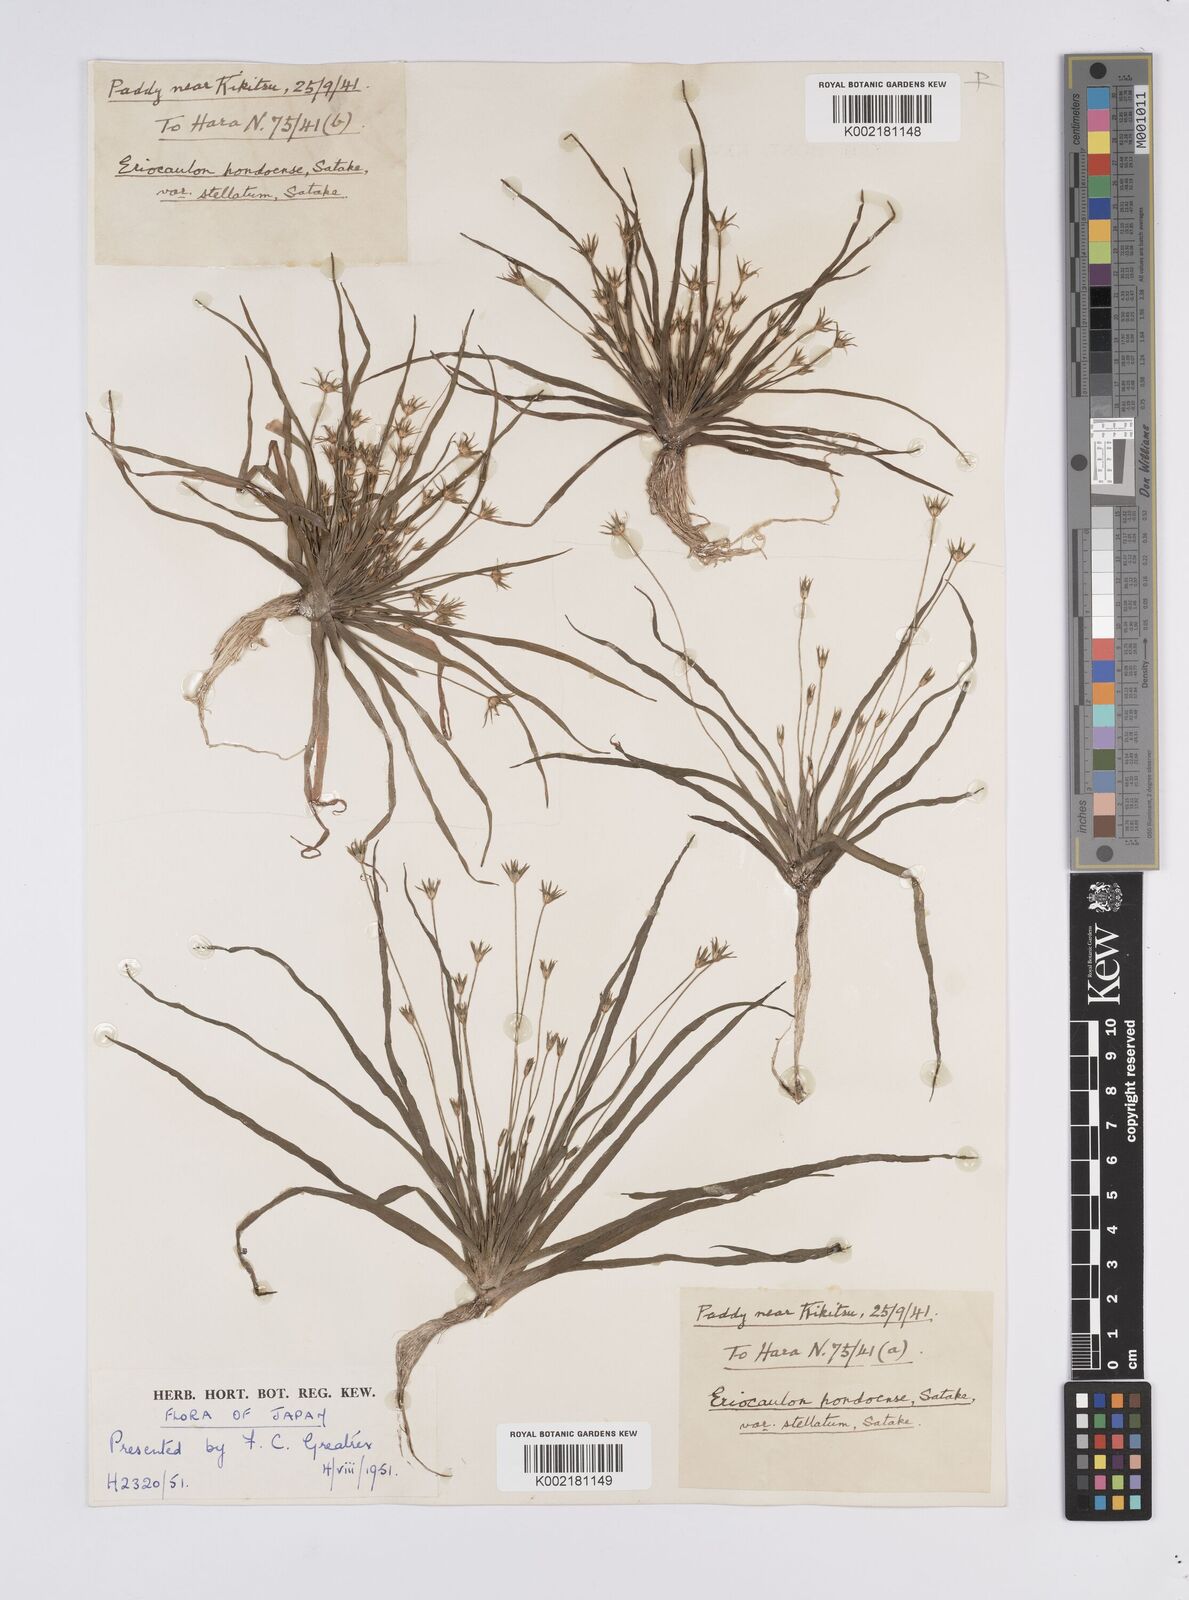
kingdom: Plantae
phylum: Tracheophyta
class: Liliopsida
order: Poales
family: Eriocaulaceae
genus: Eriocaulon
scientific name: Eriocaulon taquetii
